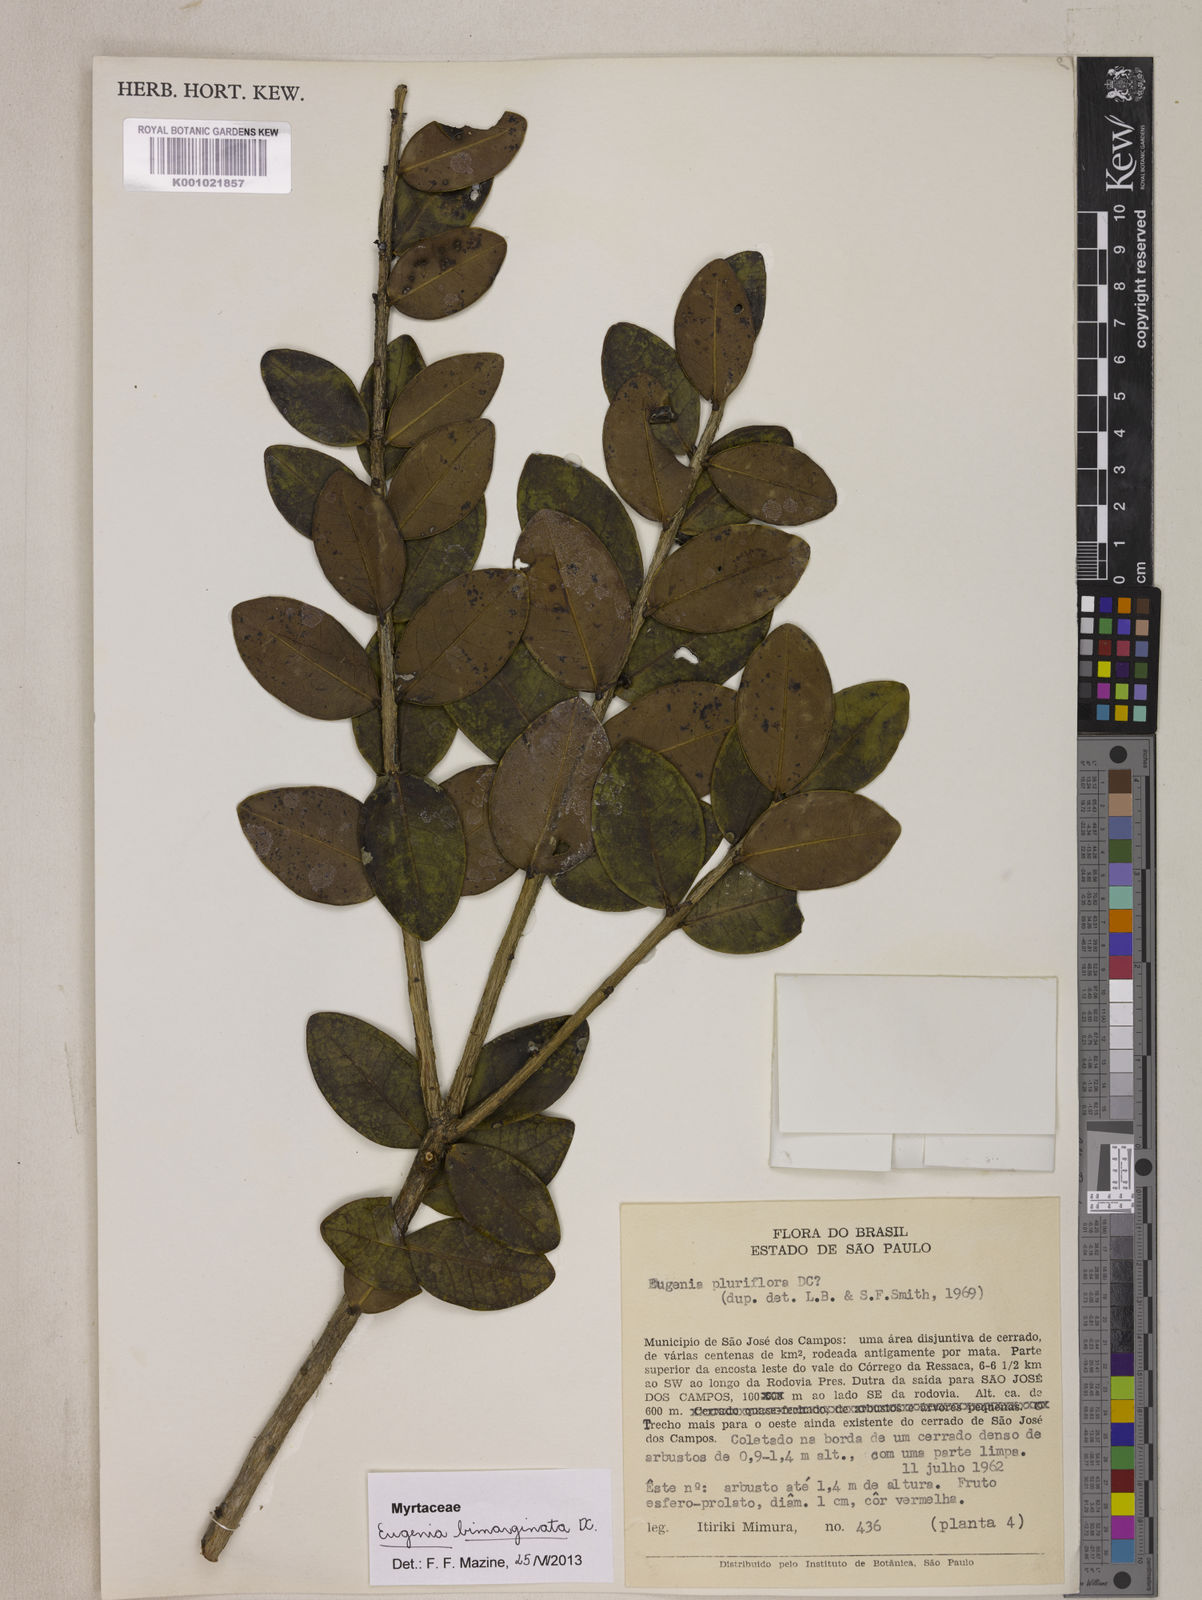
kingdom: Plantae
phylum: Tracheophyta
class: Magnoliopsida
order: Myrtales
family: Myrtaceae
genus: Eugenia
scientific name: Eugenia bimarginata
